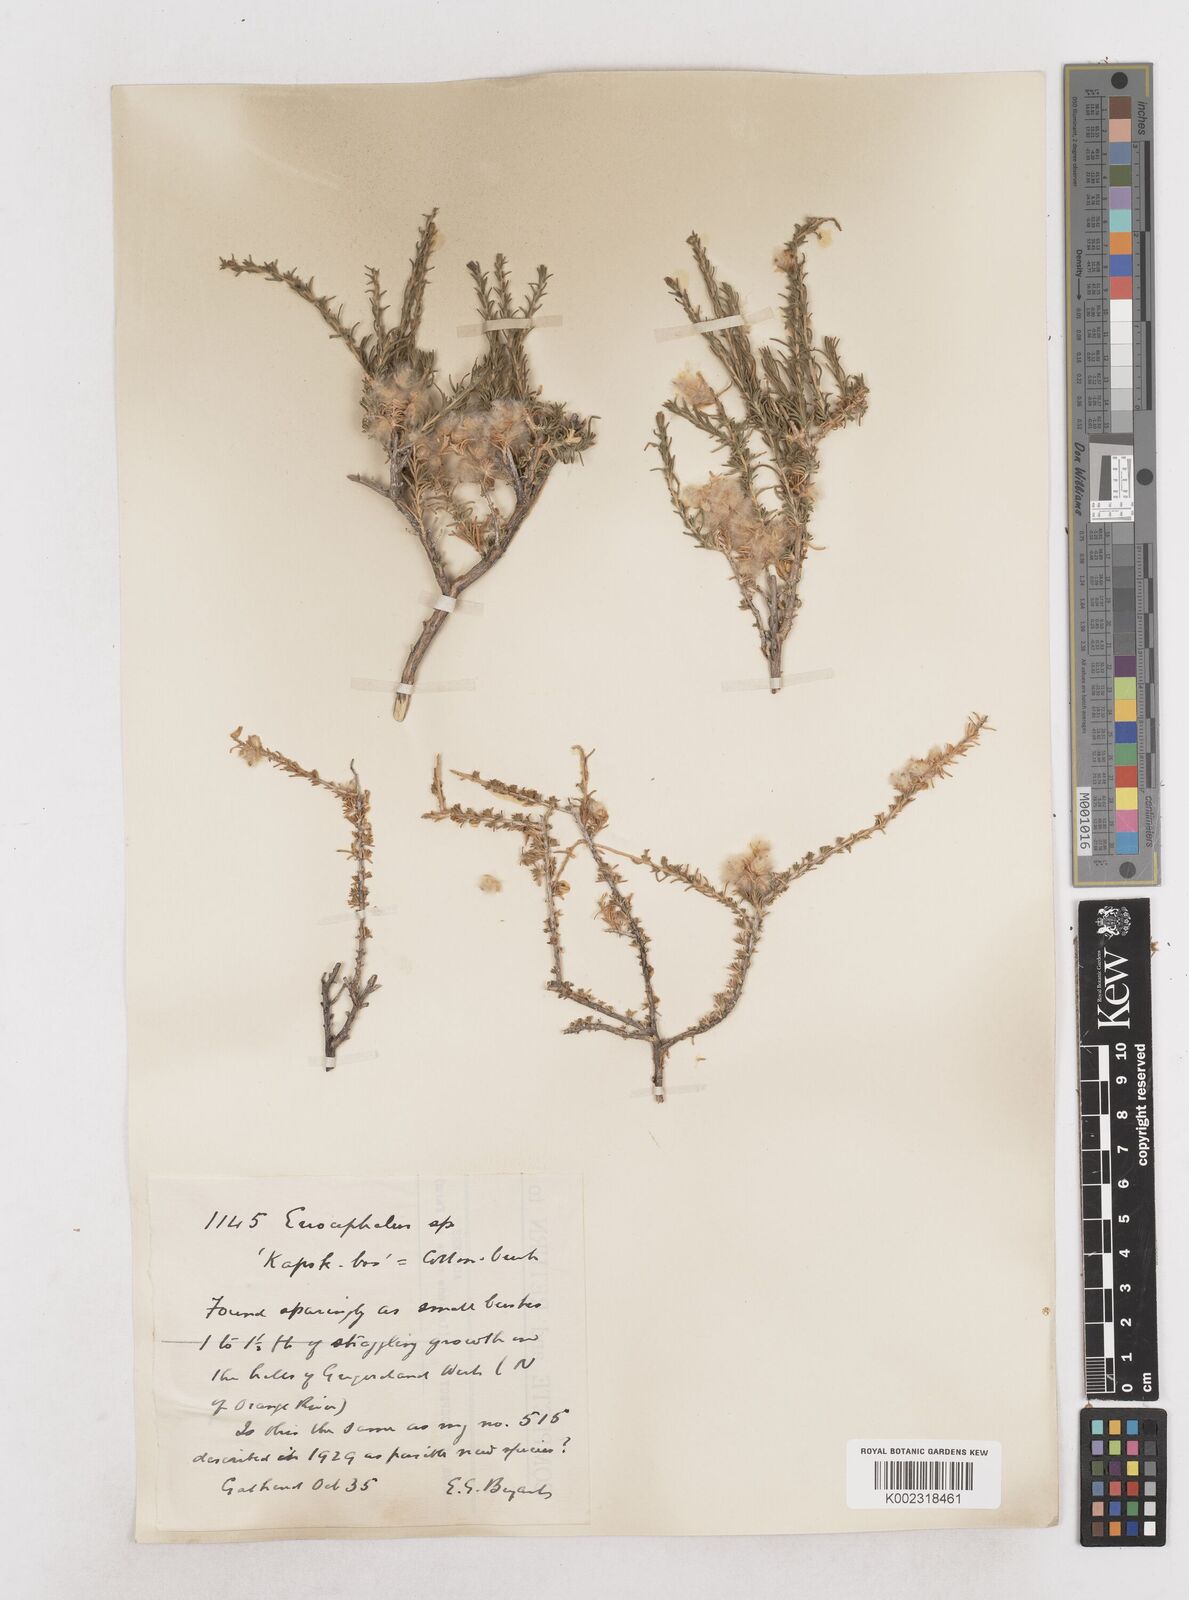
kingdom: Plantae
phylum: Tracheophyta
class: Magnoliopsida
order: Asterales
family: Asteraceae
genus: Eriocephalus
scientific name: Eriocephalus
